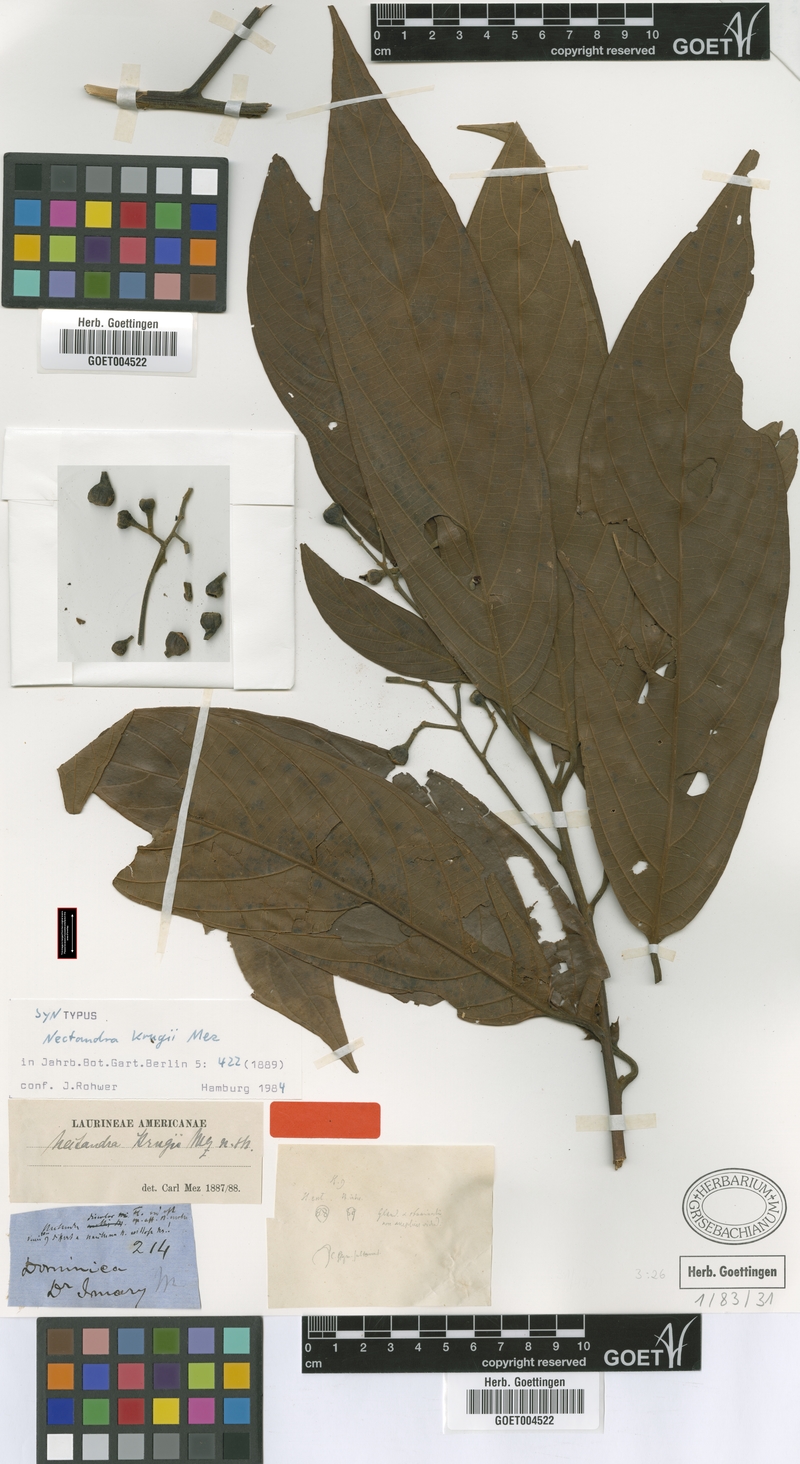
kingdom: Plantae
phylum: Tracheophyta
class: Magnoliopsida
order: Laurales
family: Lauraceae
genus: Nectandra
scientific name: Nectandra krugii
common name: Black sweetwood
